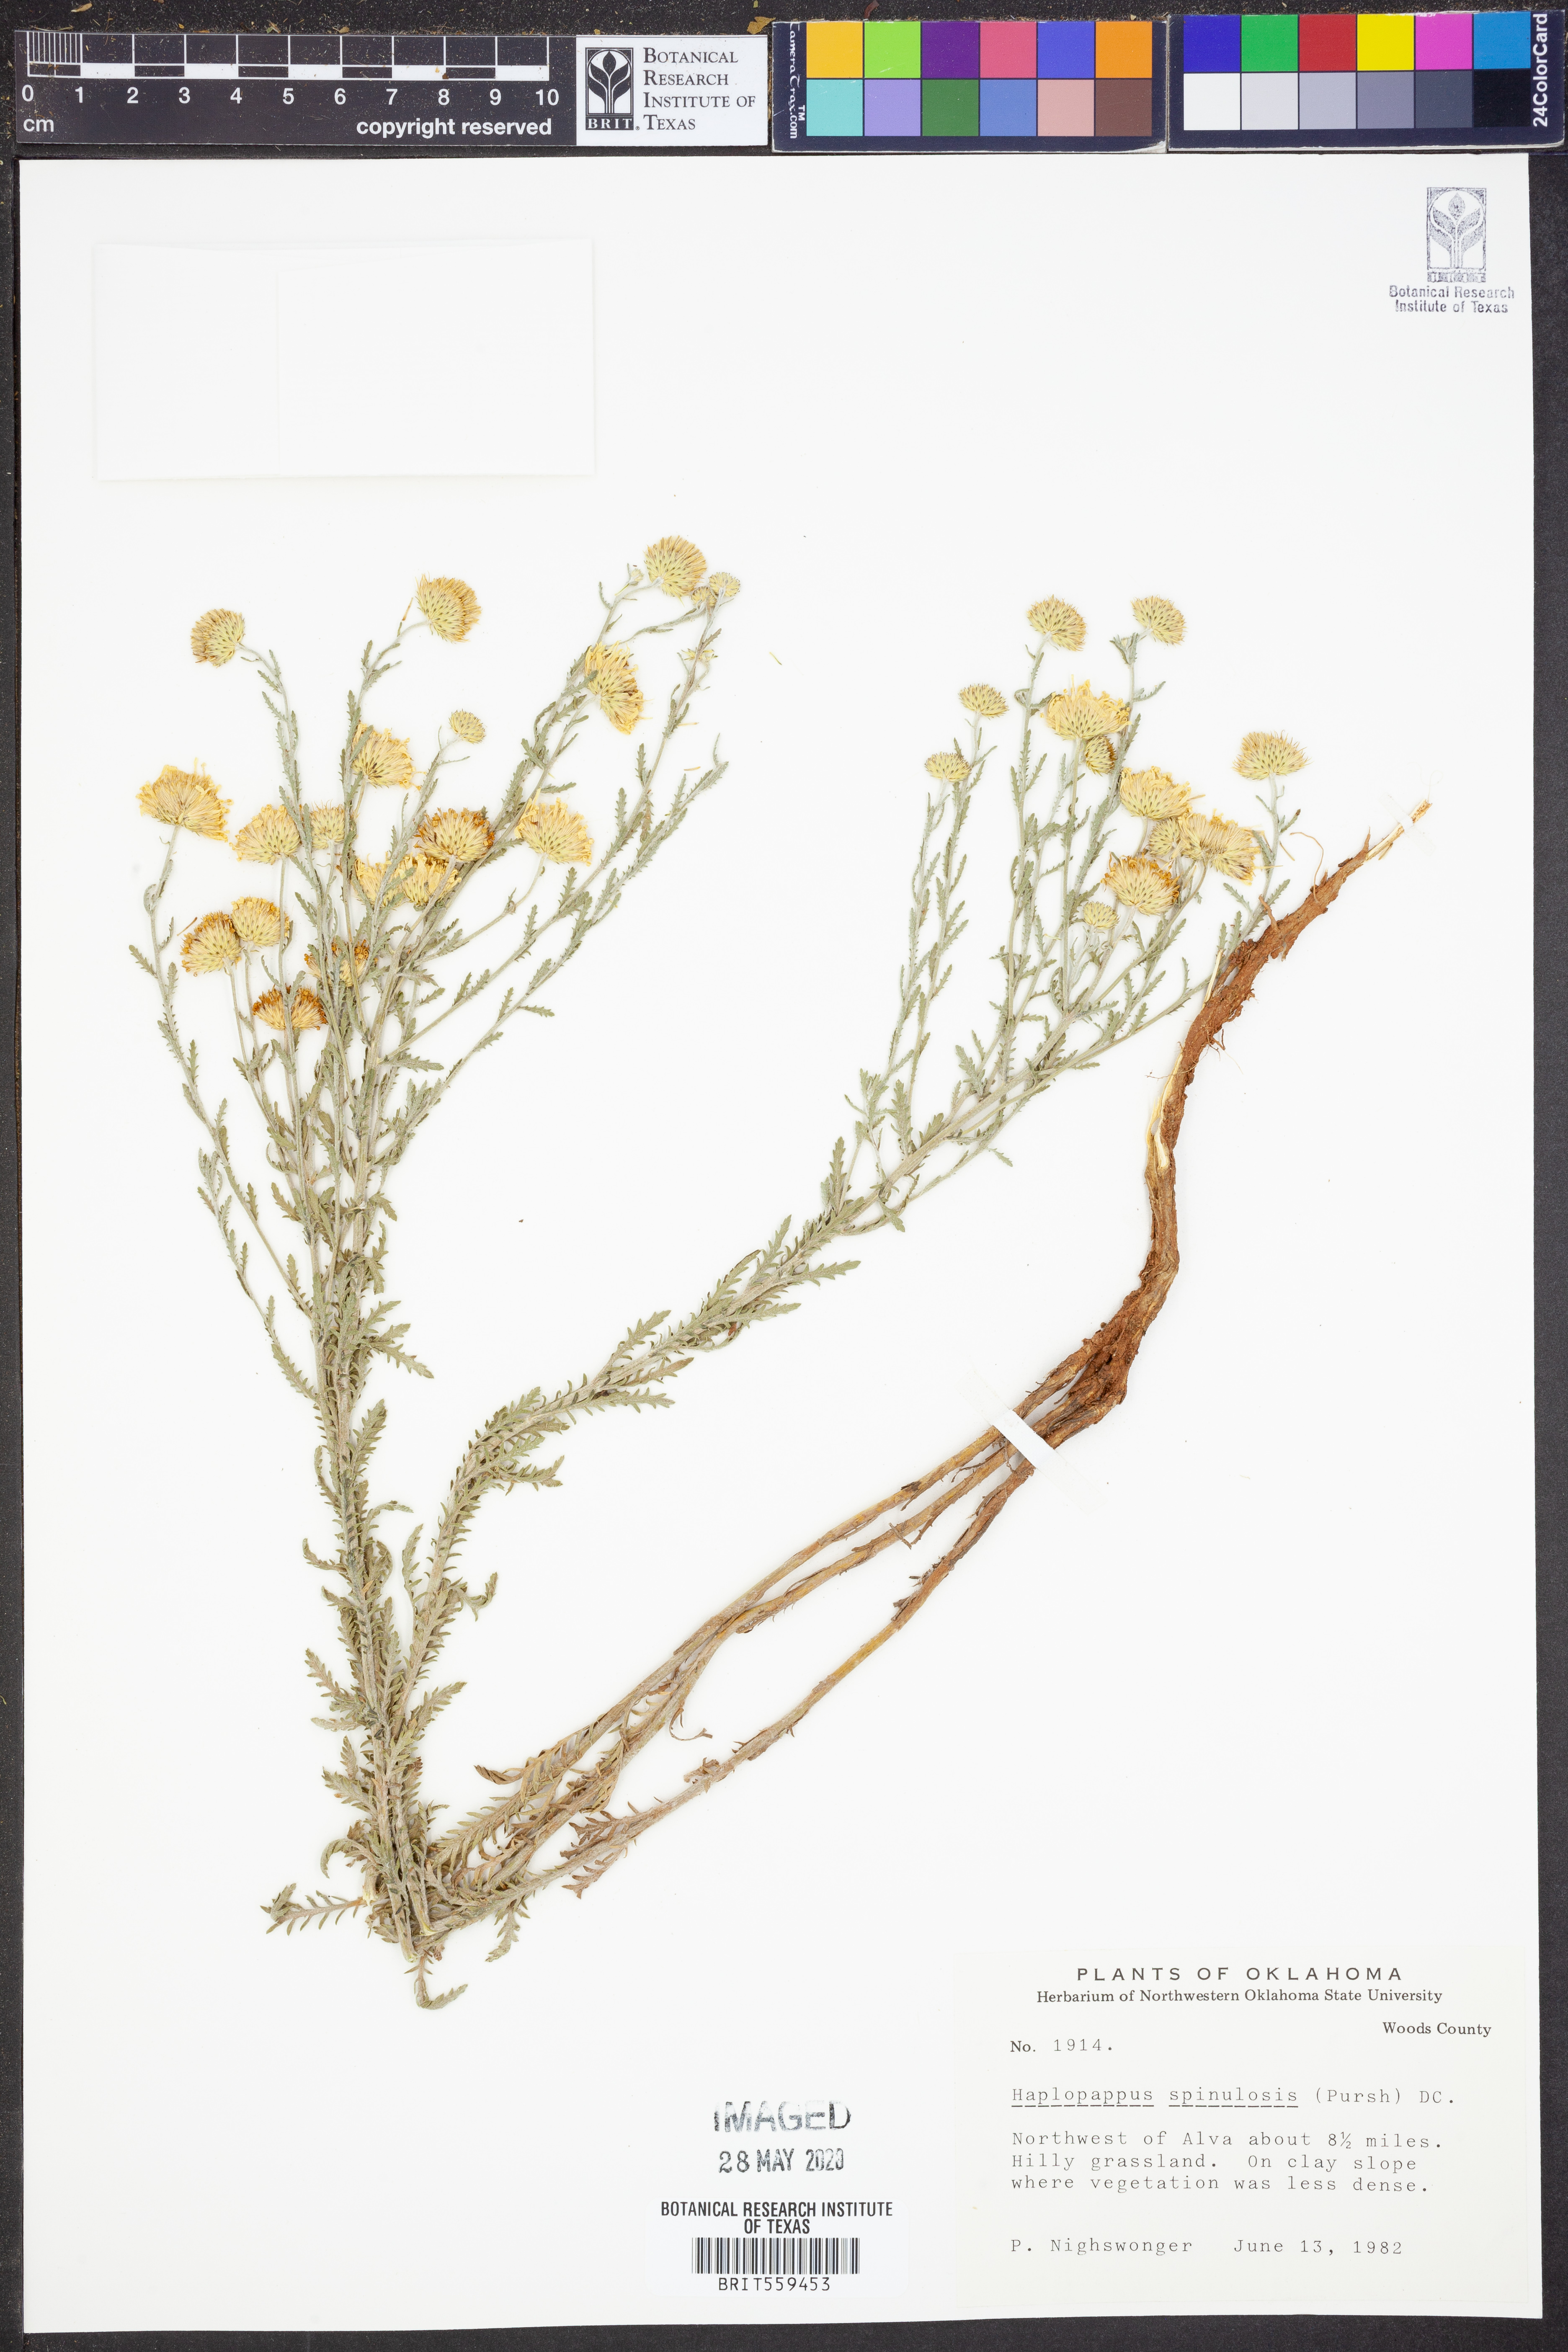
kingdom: Plantae
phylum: Tracheophyta
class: Magnoliopsida
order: Asterales
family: Asteraceae
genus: Xanthisma
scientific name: Xanthisma spinulosum
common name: Spiny goldenweed
